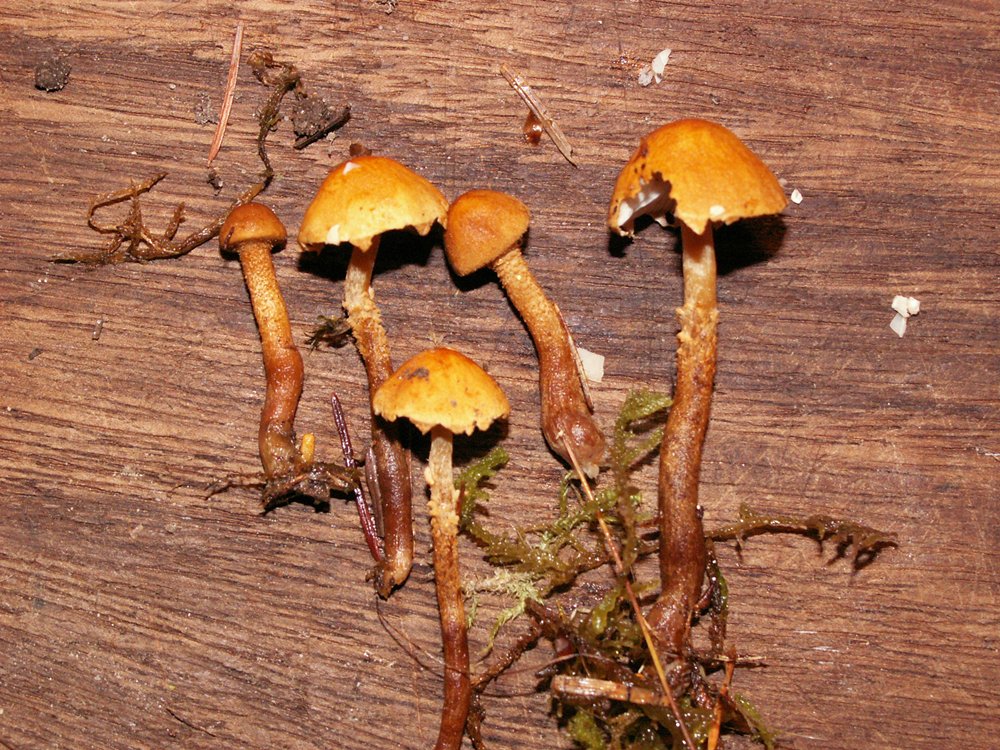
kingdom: Fungi
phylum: Basidiomycota
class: Agaricomycetes
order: Agaricales
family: Tricholomataceae
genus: Cystoderma
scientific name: Cystoderma jasonis
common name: gulkødet grynhat
